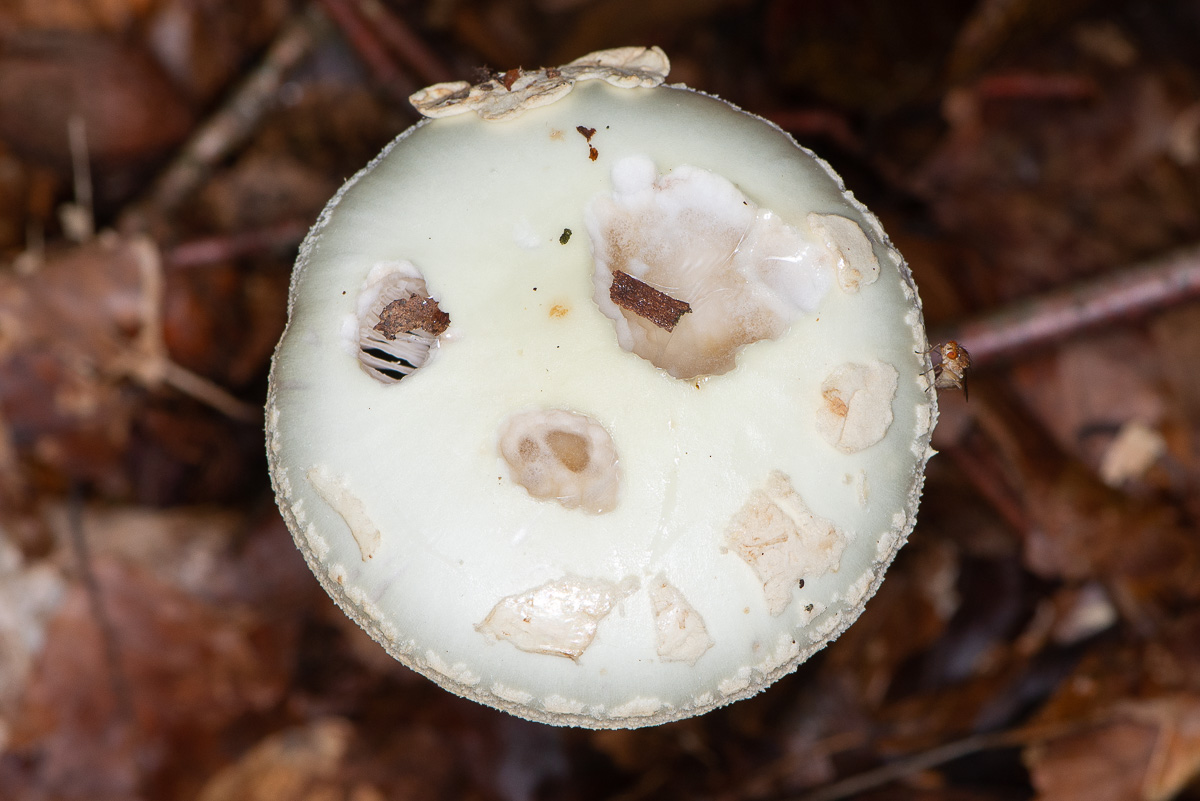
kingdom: Fungi
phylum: Basidiomycota
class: Agaricomycetes
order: Agaricales
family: Amanitaceae
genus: Amanita
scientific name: Amanita citrina
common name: kugleknoldet fluesvamp
